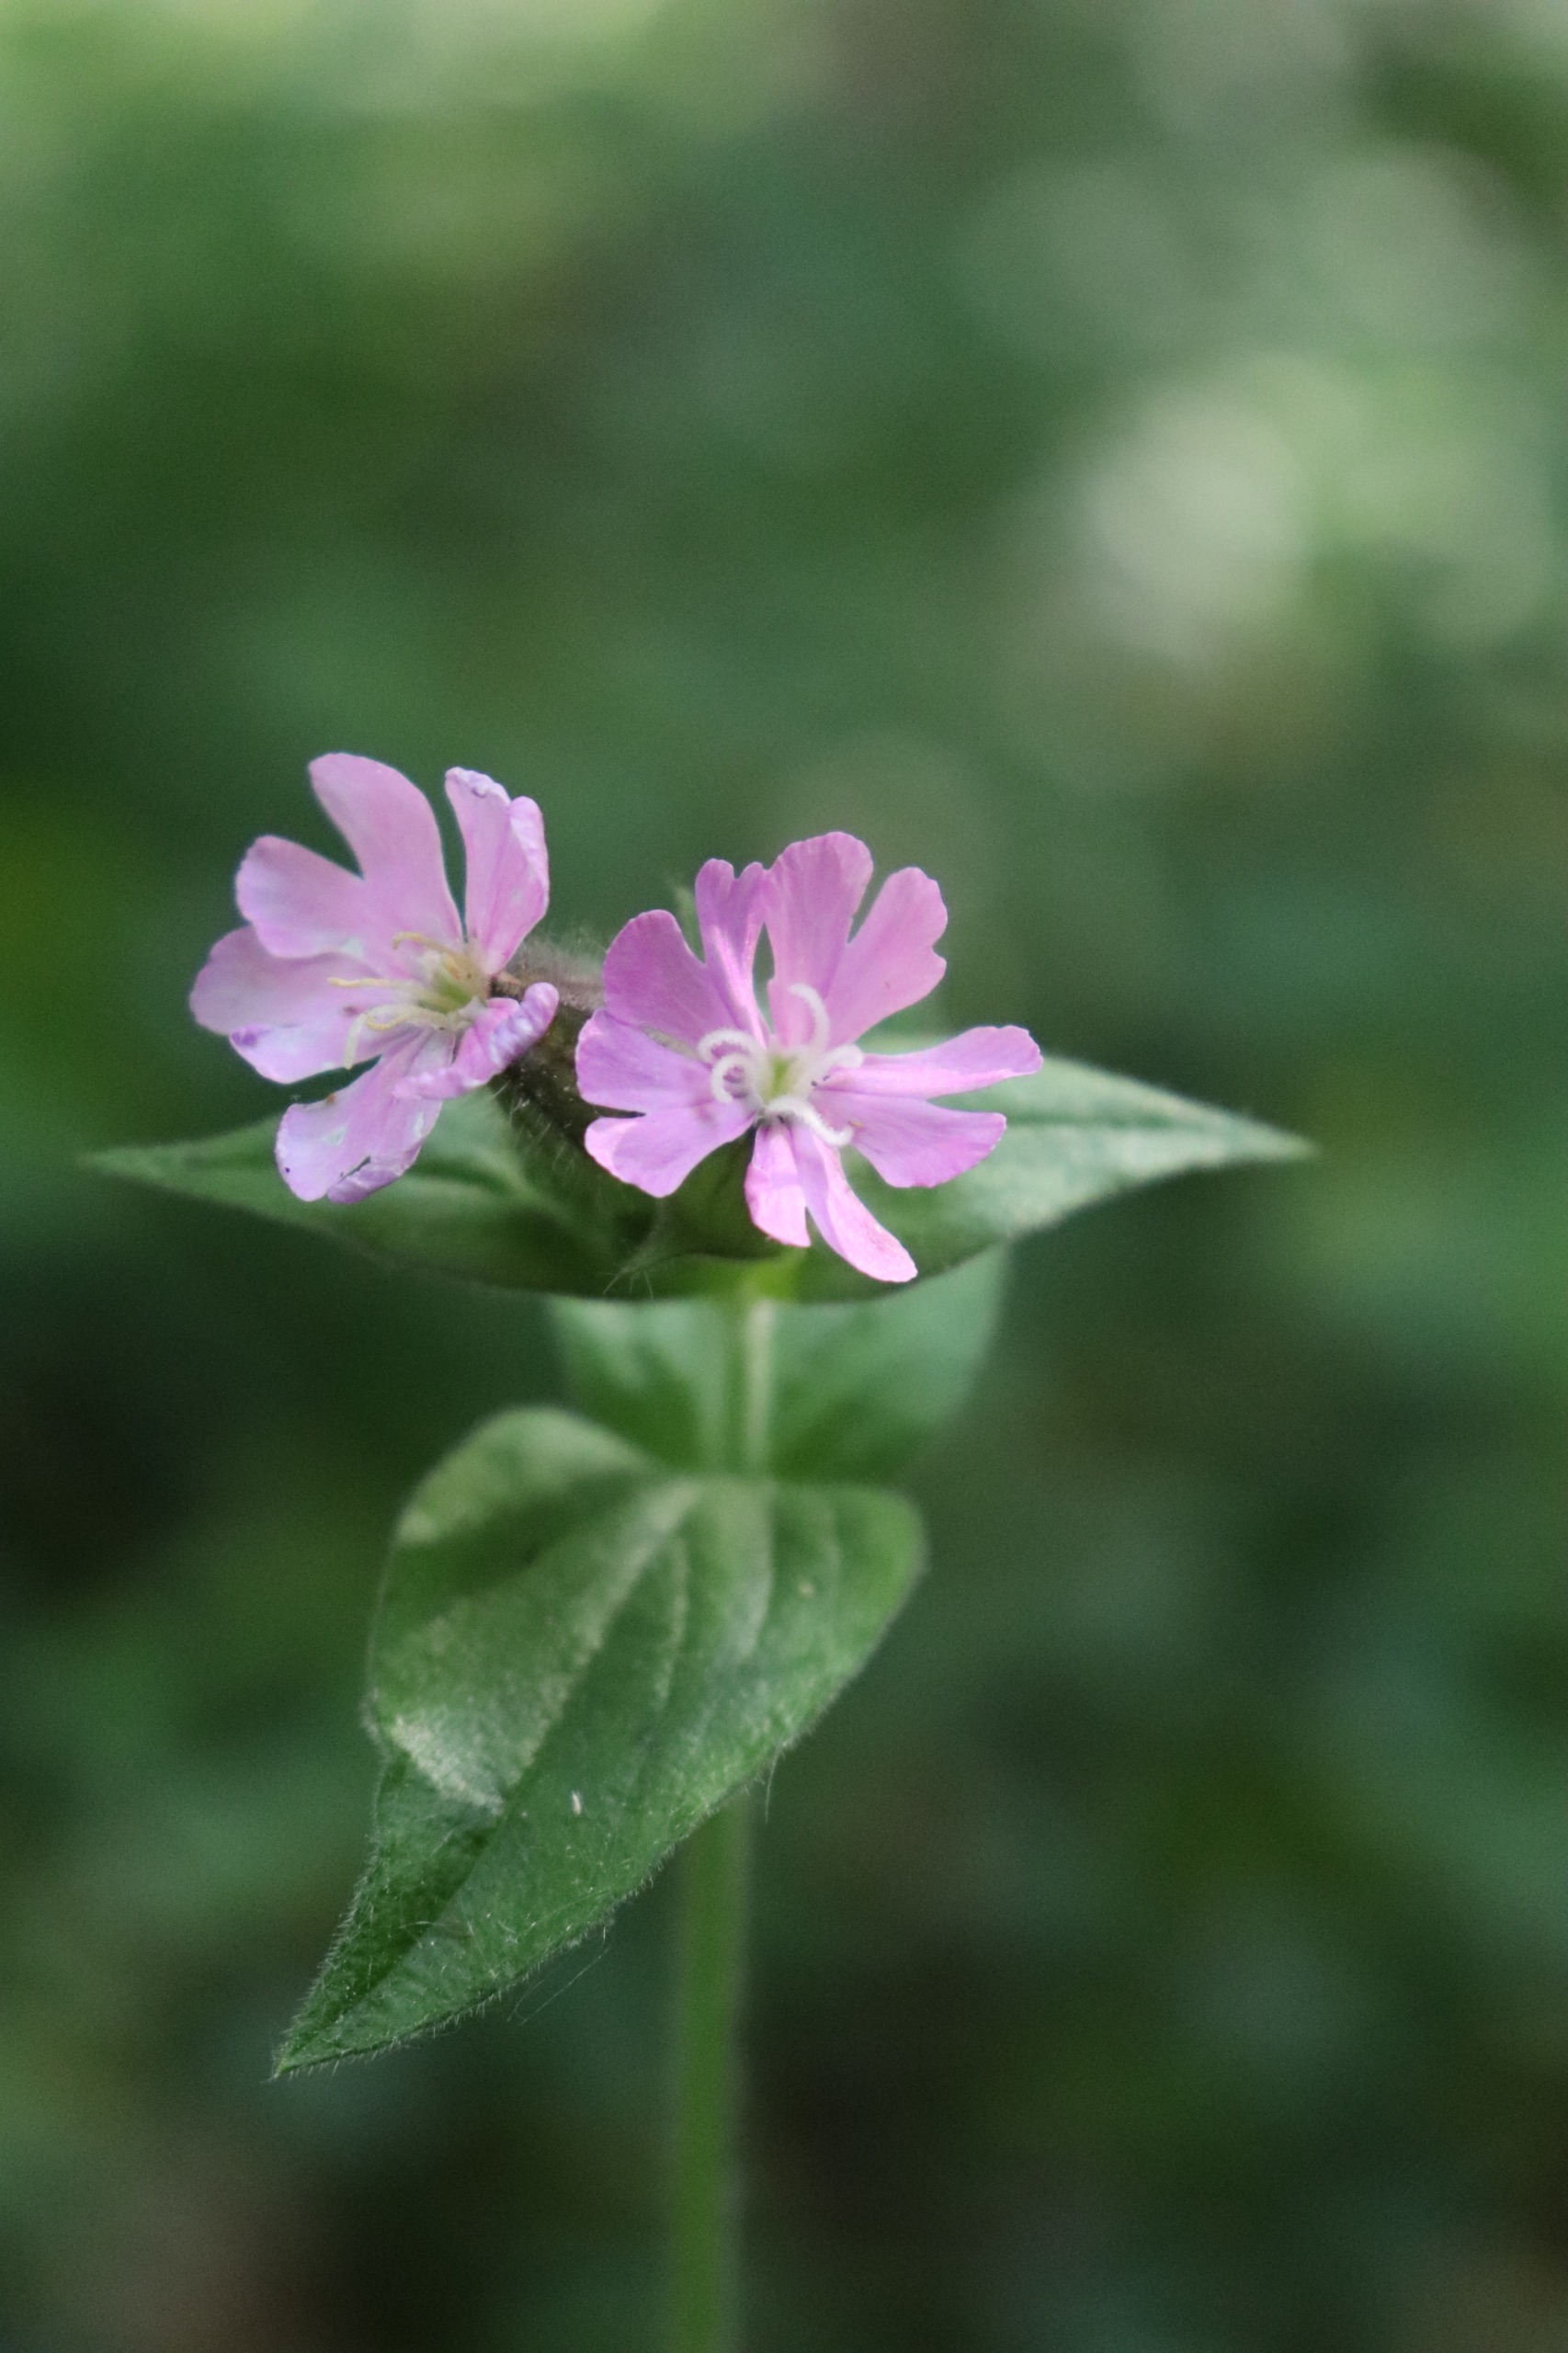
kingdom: Plantae
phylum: Tracheophyta
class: Magnoliopsida
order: Caryophyllales
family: Caryophyllaceae
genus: Silene
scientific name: Silene dioica
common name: Dagpragtstjerne
